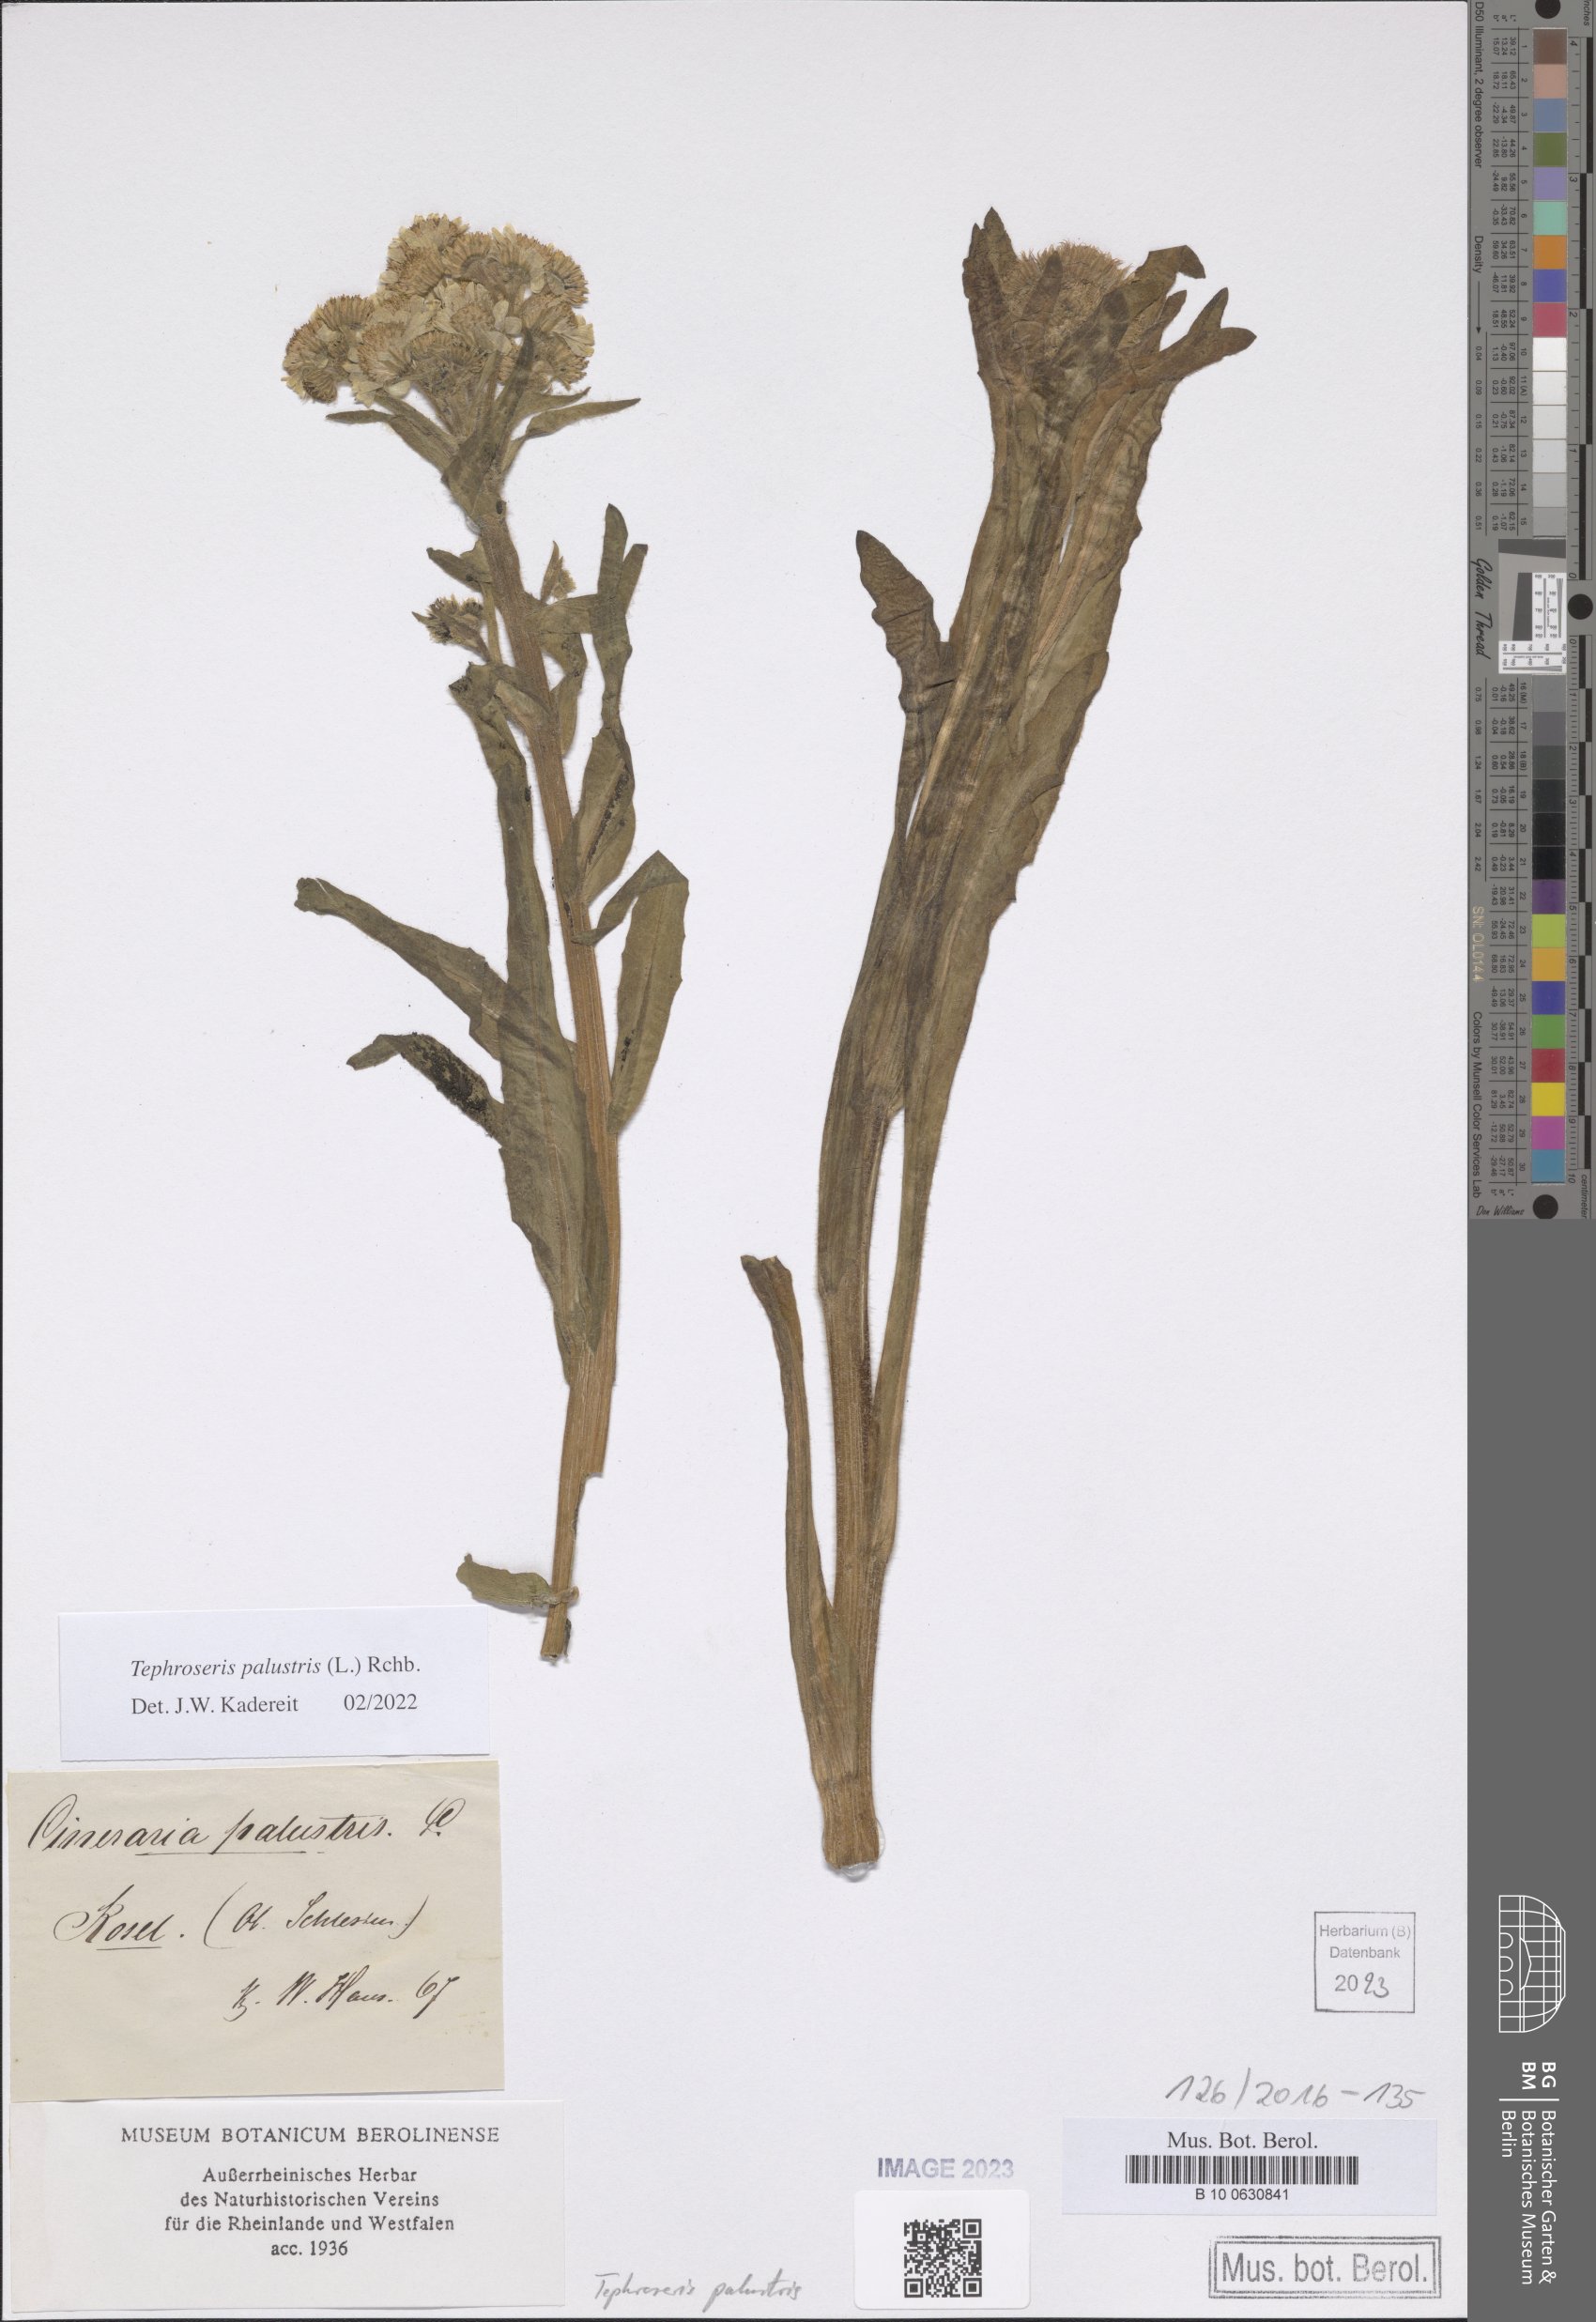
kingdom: Plantae
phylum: Tracheophyta
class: Magnoliopsida
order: Asterales
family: Asteraceae
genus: Tephroseris
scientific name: Tephroseris palustris
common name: Marsh fleawort
